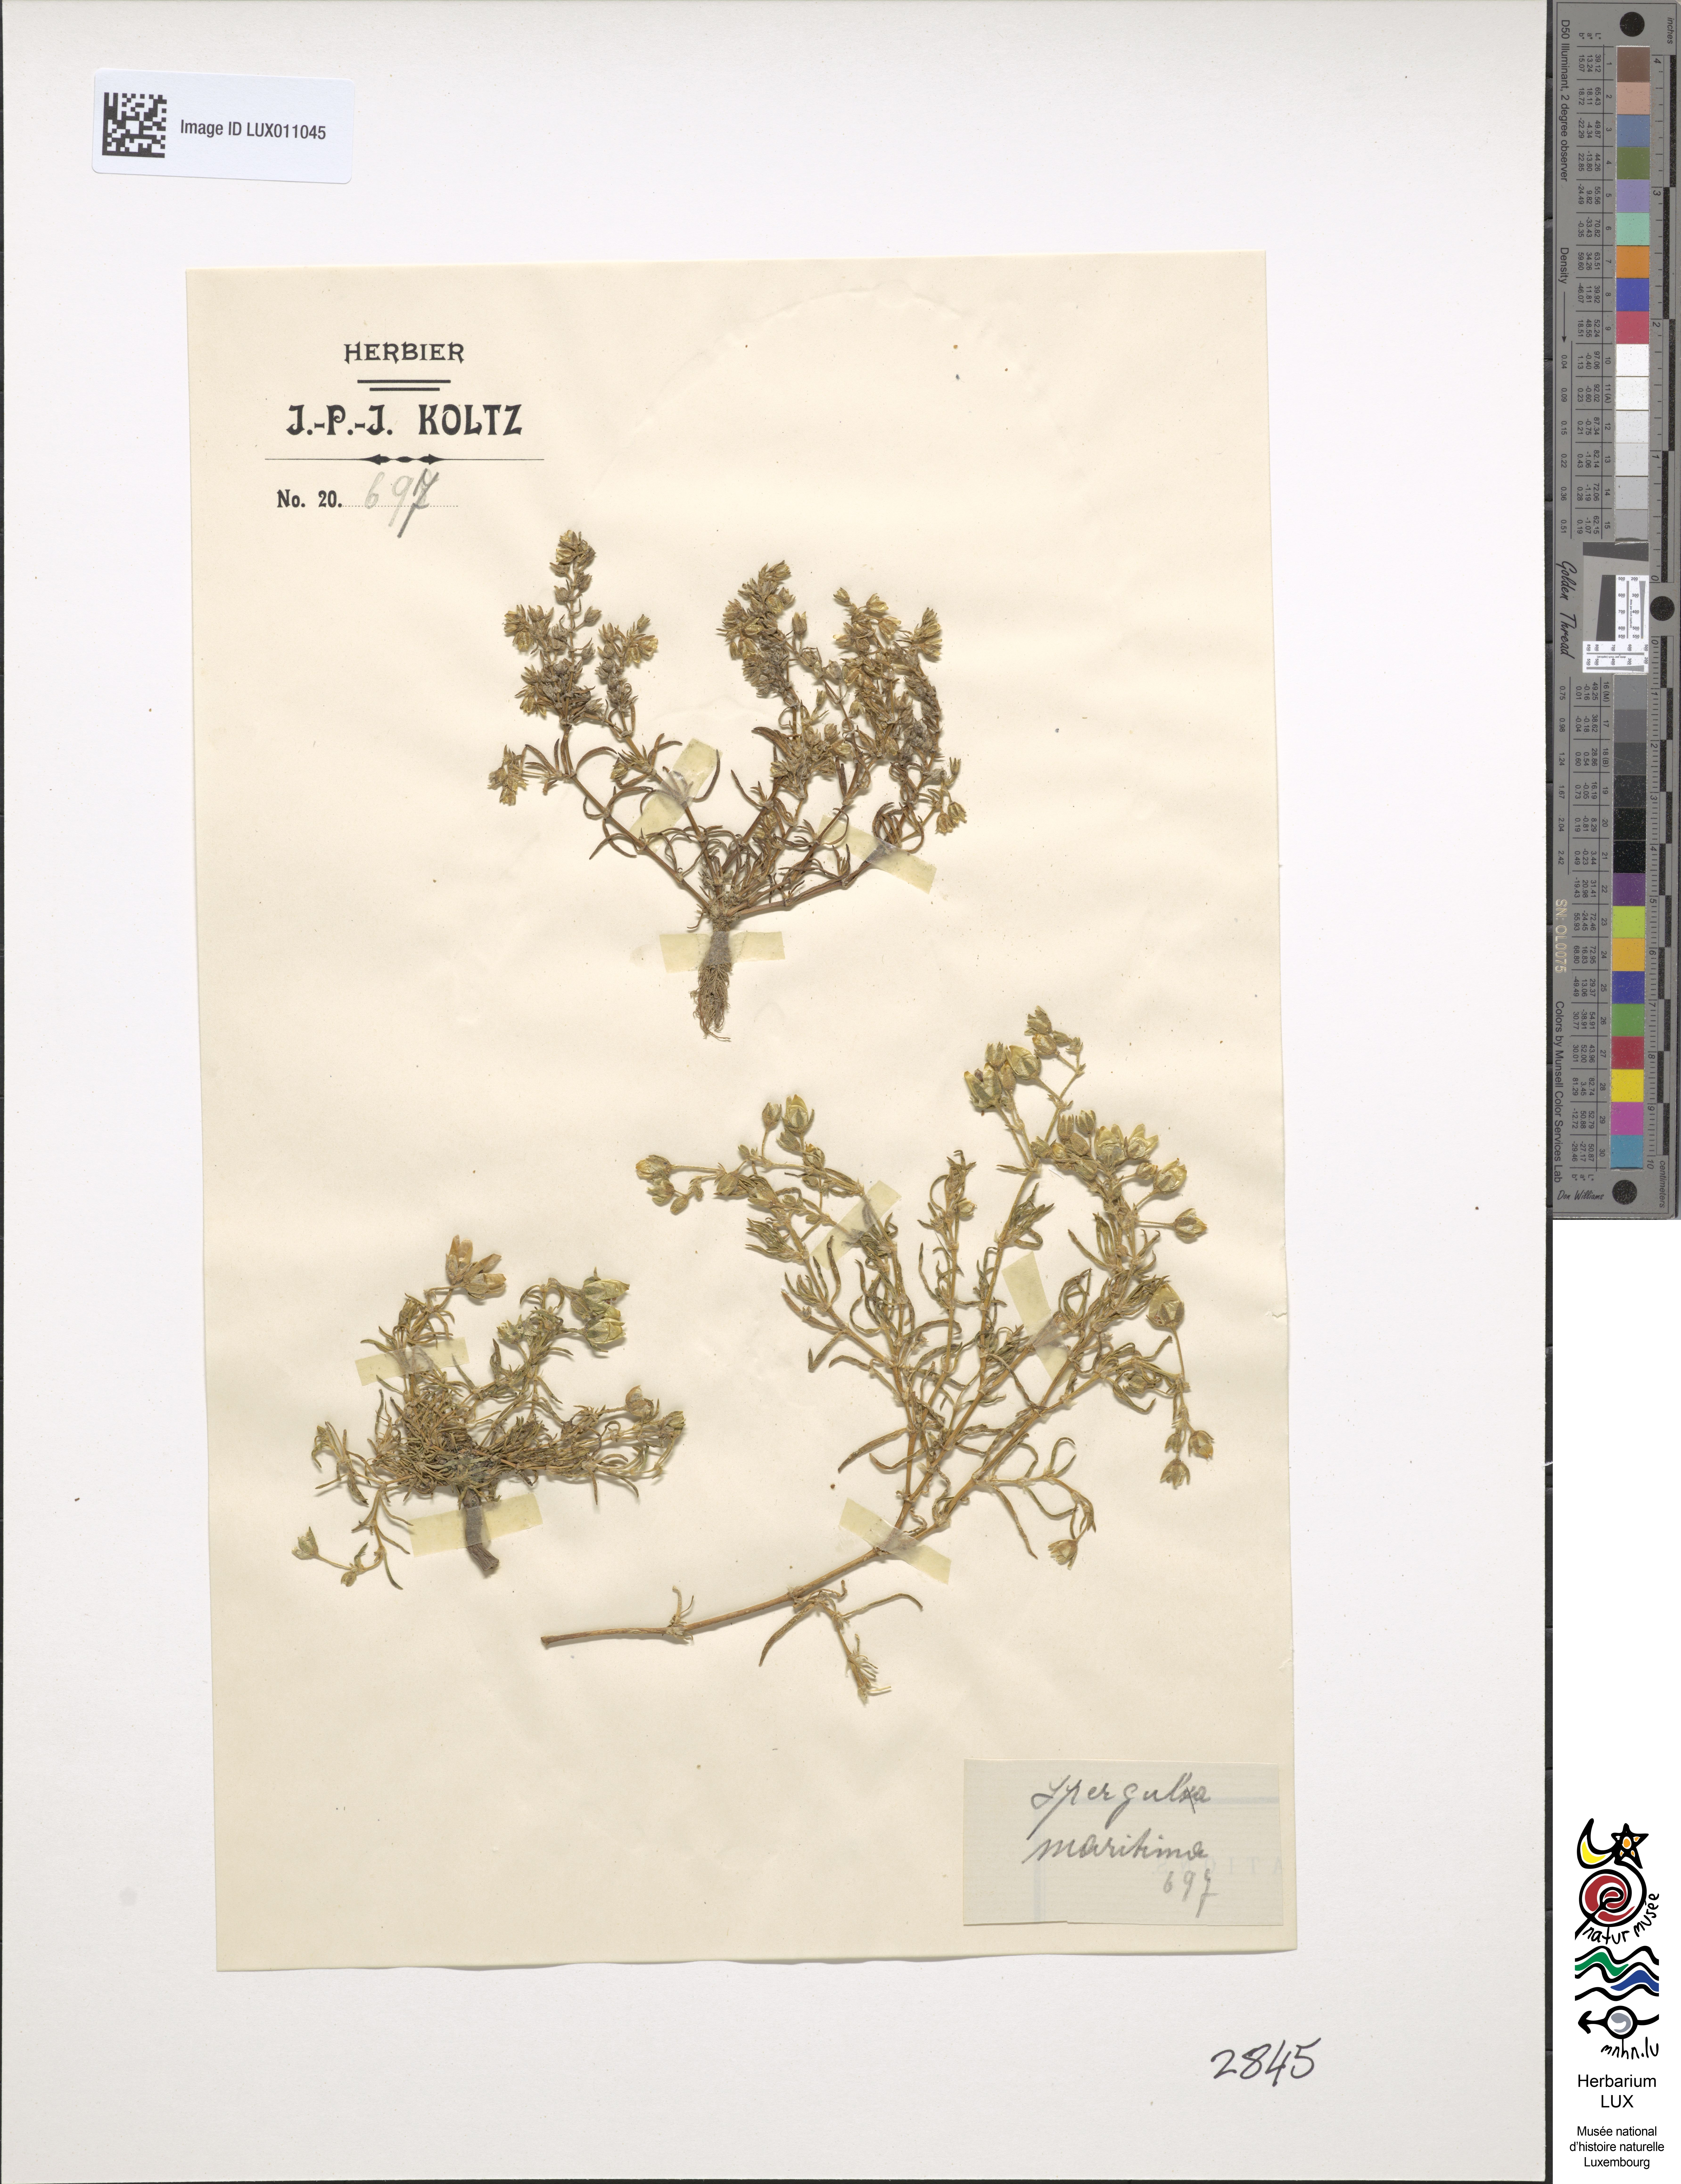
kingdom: Plantae
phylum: Tracheophyta
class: Magnoliopsida
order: Caryophyllales
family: Caryophyllaceae
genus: Spergularia
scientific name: Spergularia media
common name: Greater sea-spurrey
